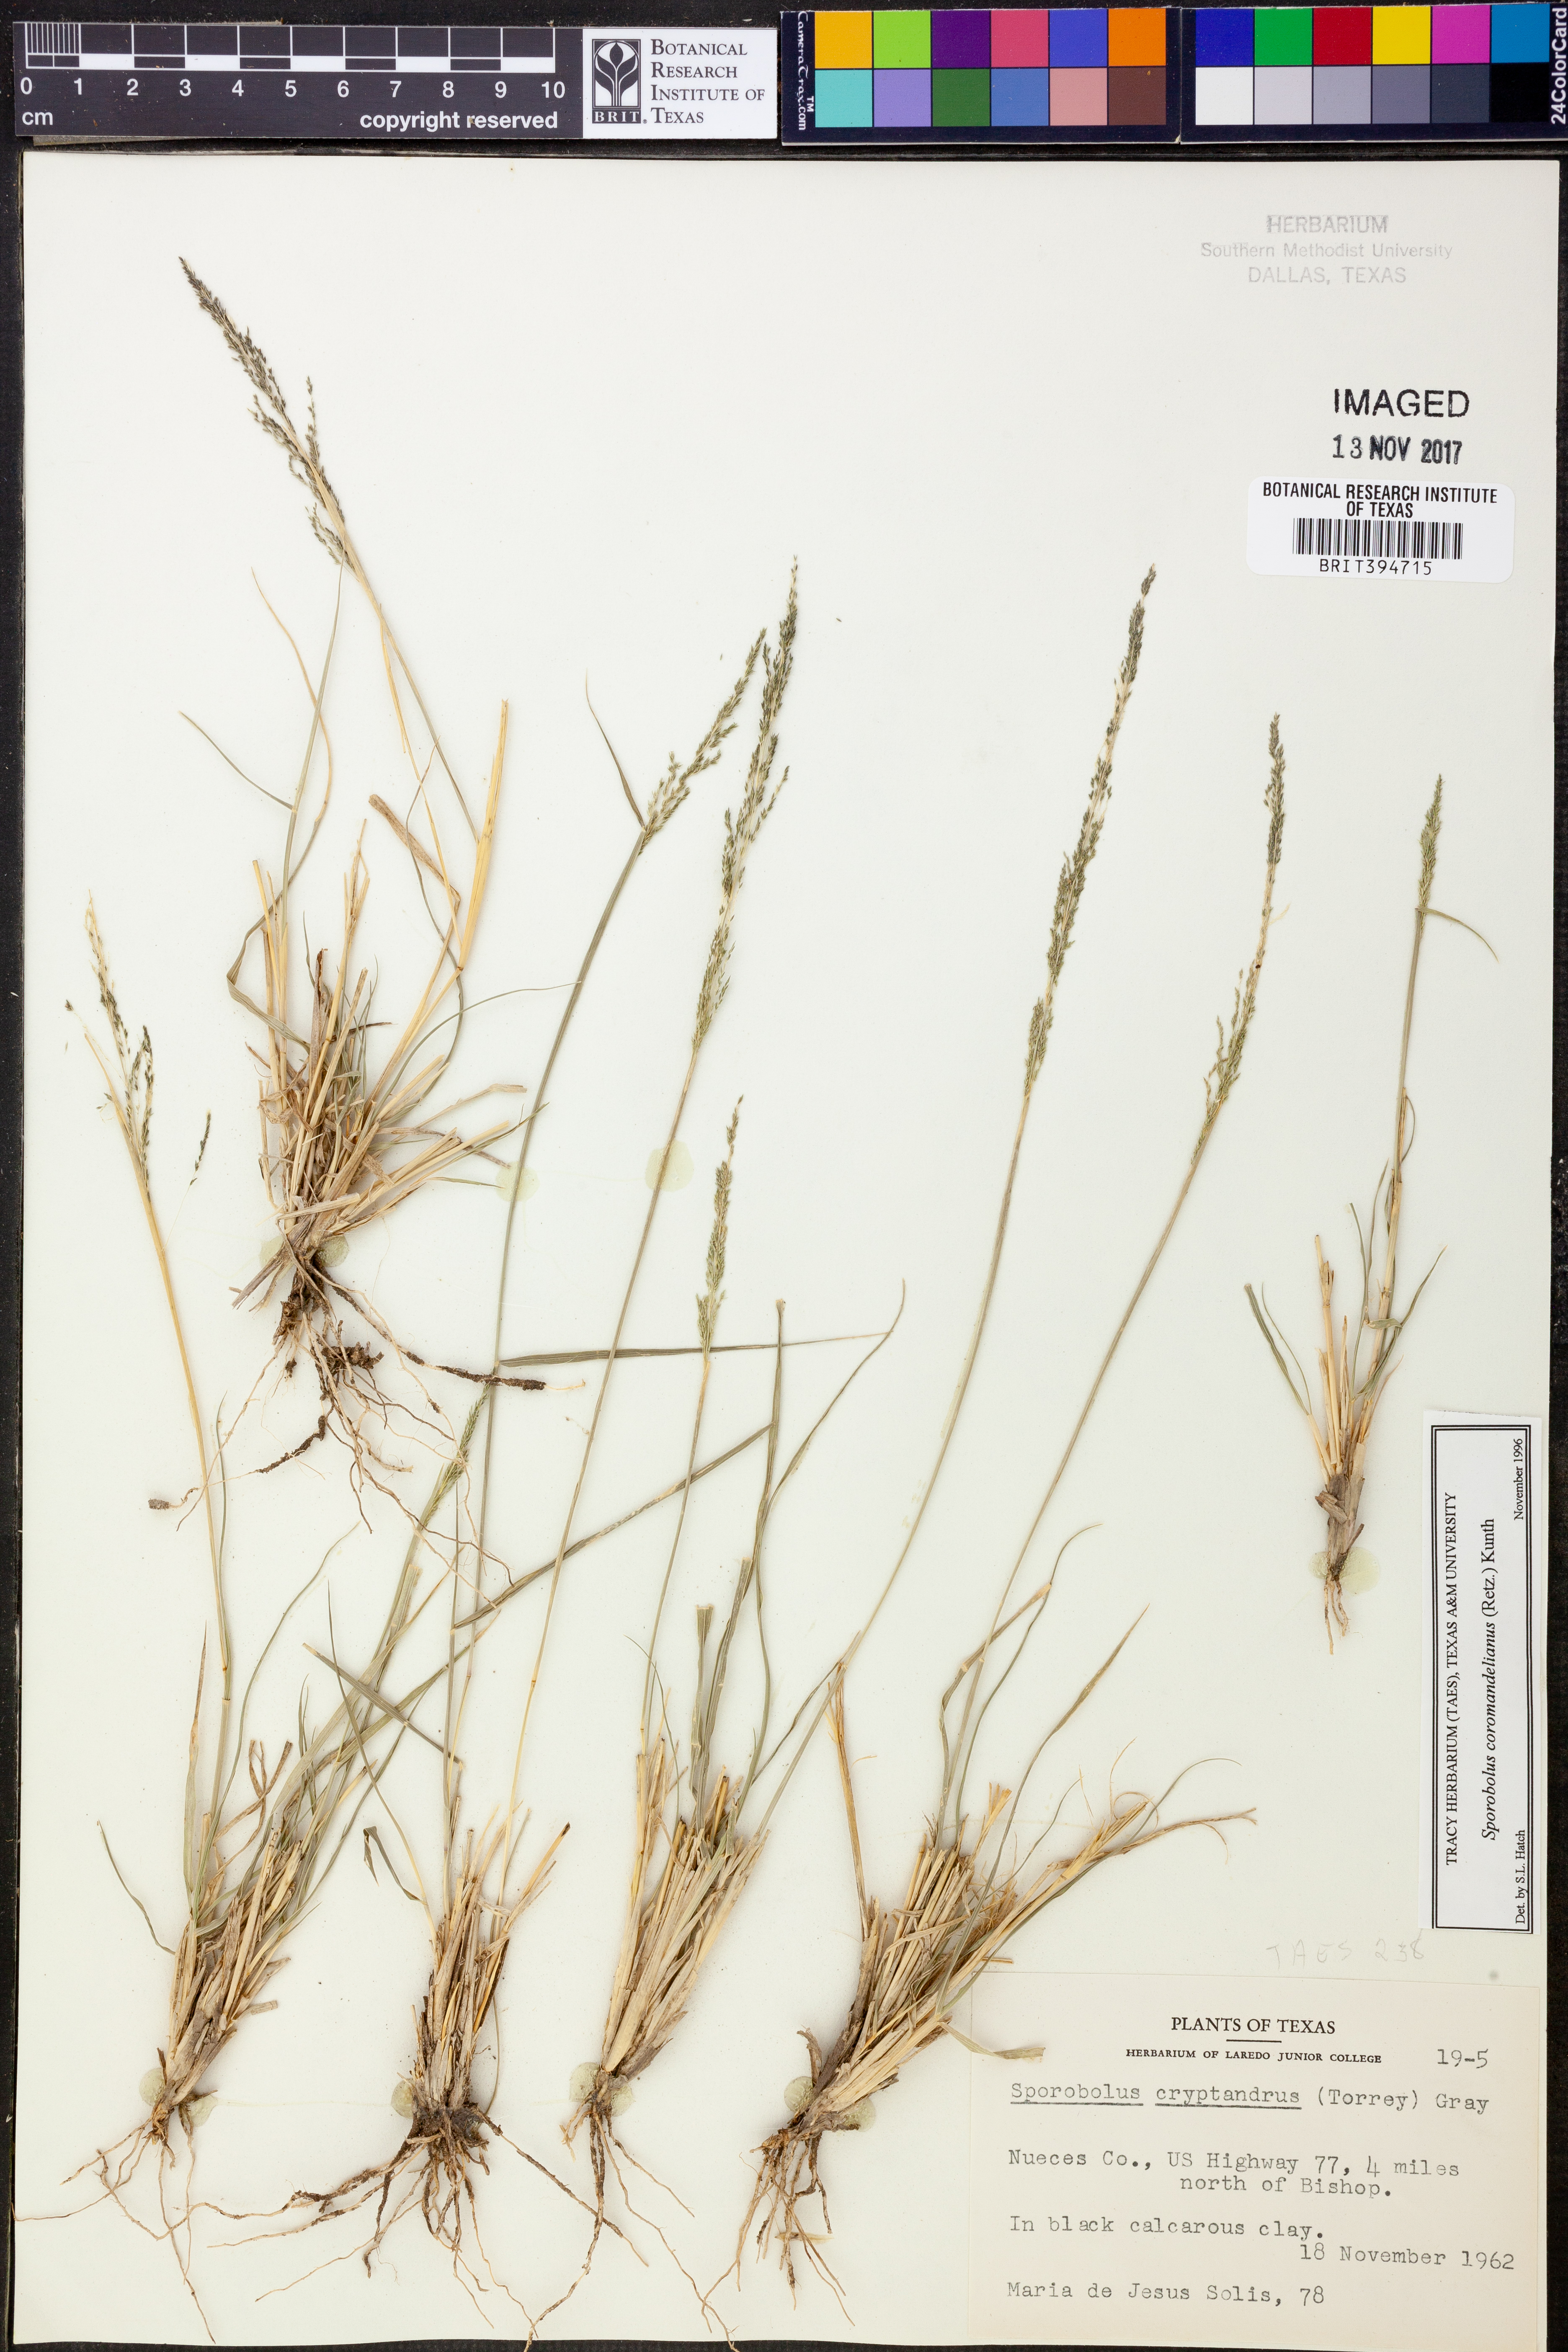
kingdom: Plantae
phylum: Tracheophyta
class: Liliopsida
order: Poales
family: Poaceae
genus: Sporobolus
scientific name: Sporobolus cryptandrus
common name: Sand dropseed
